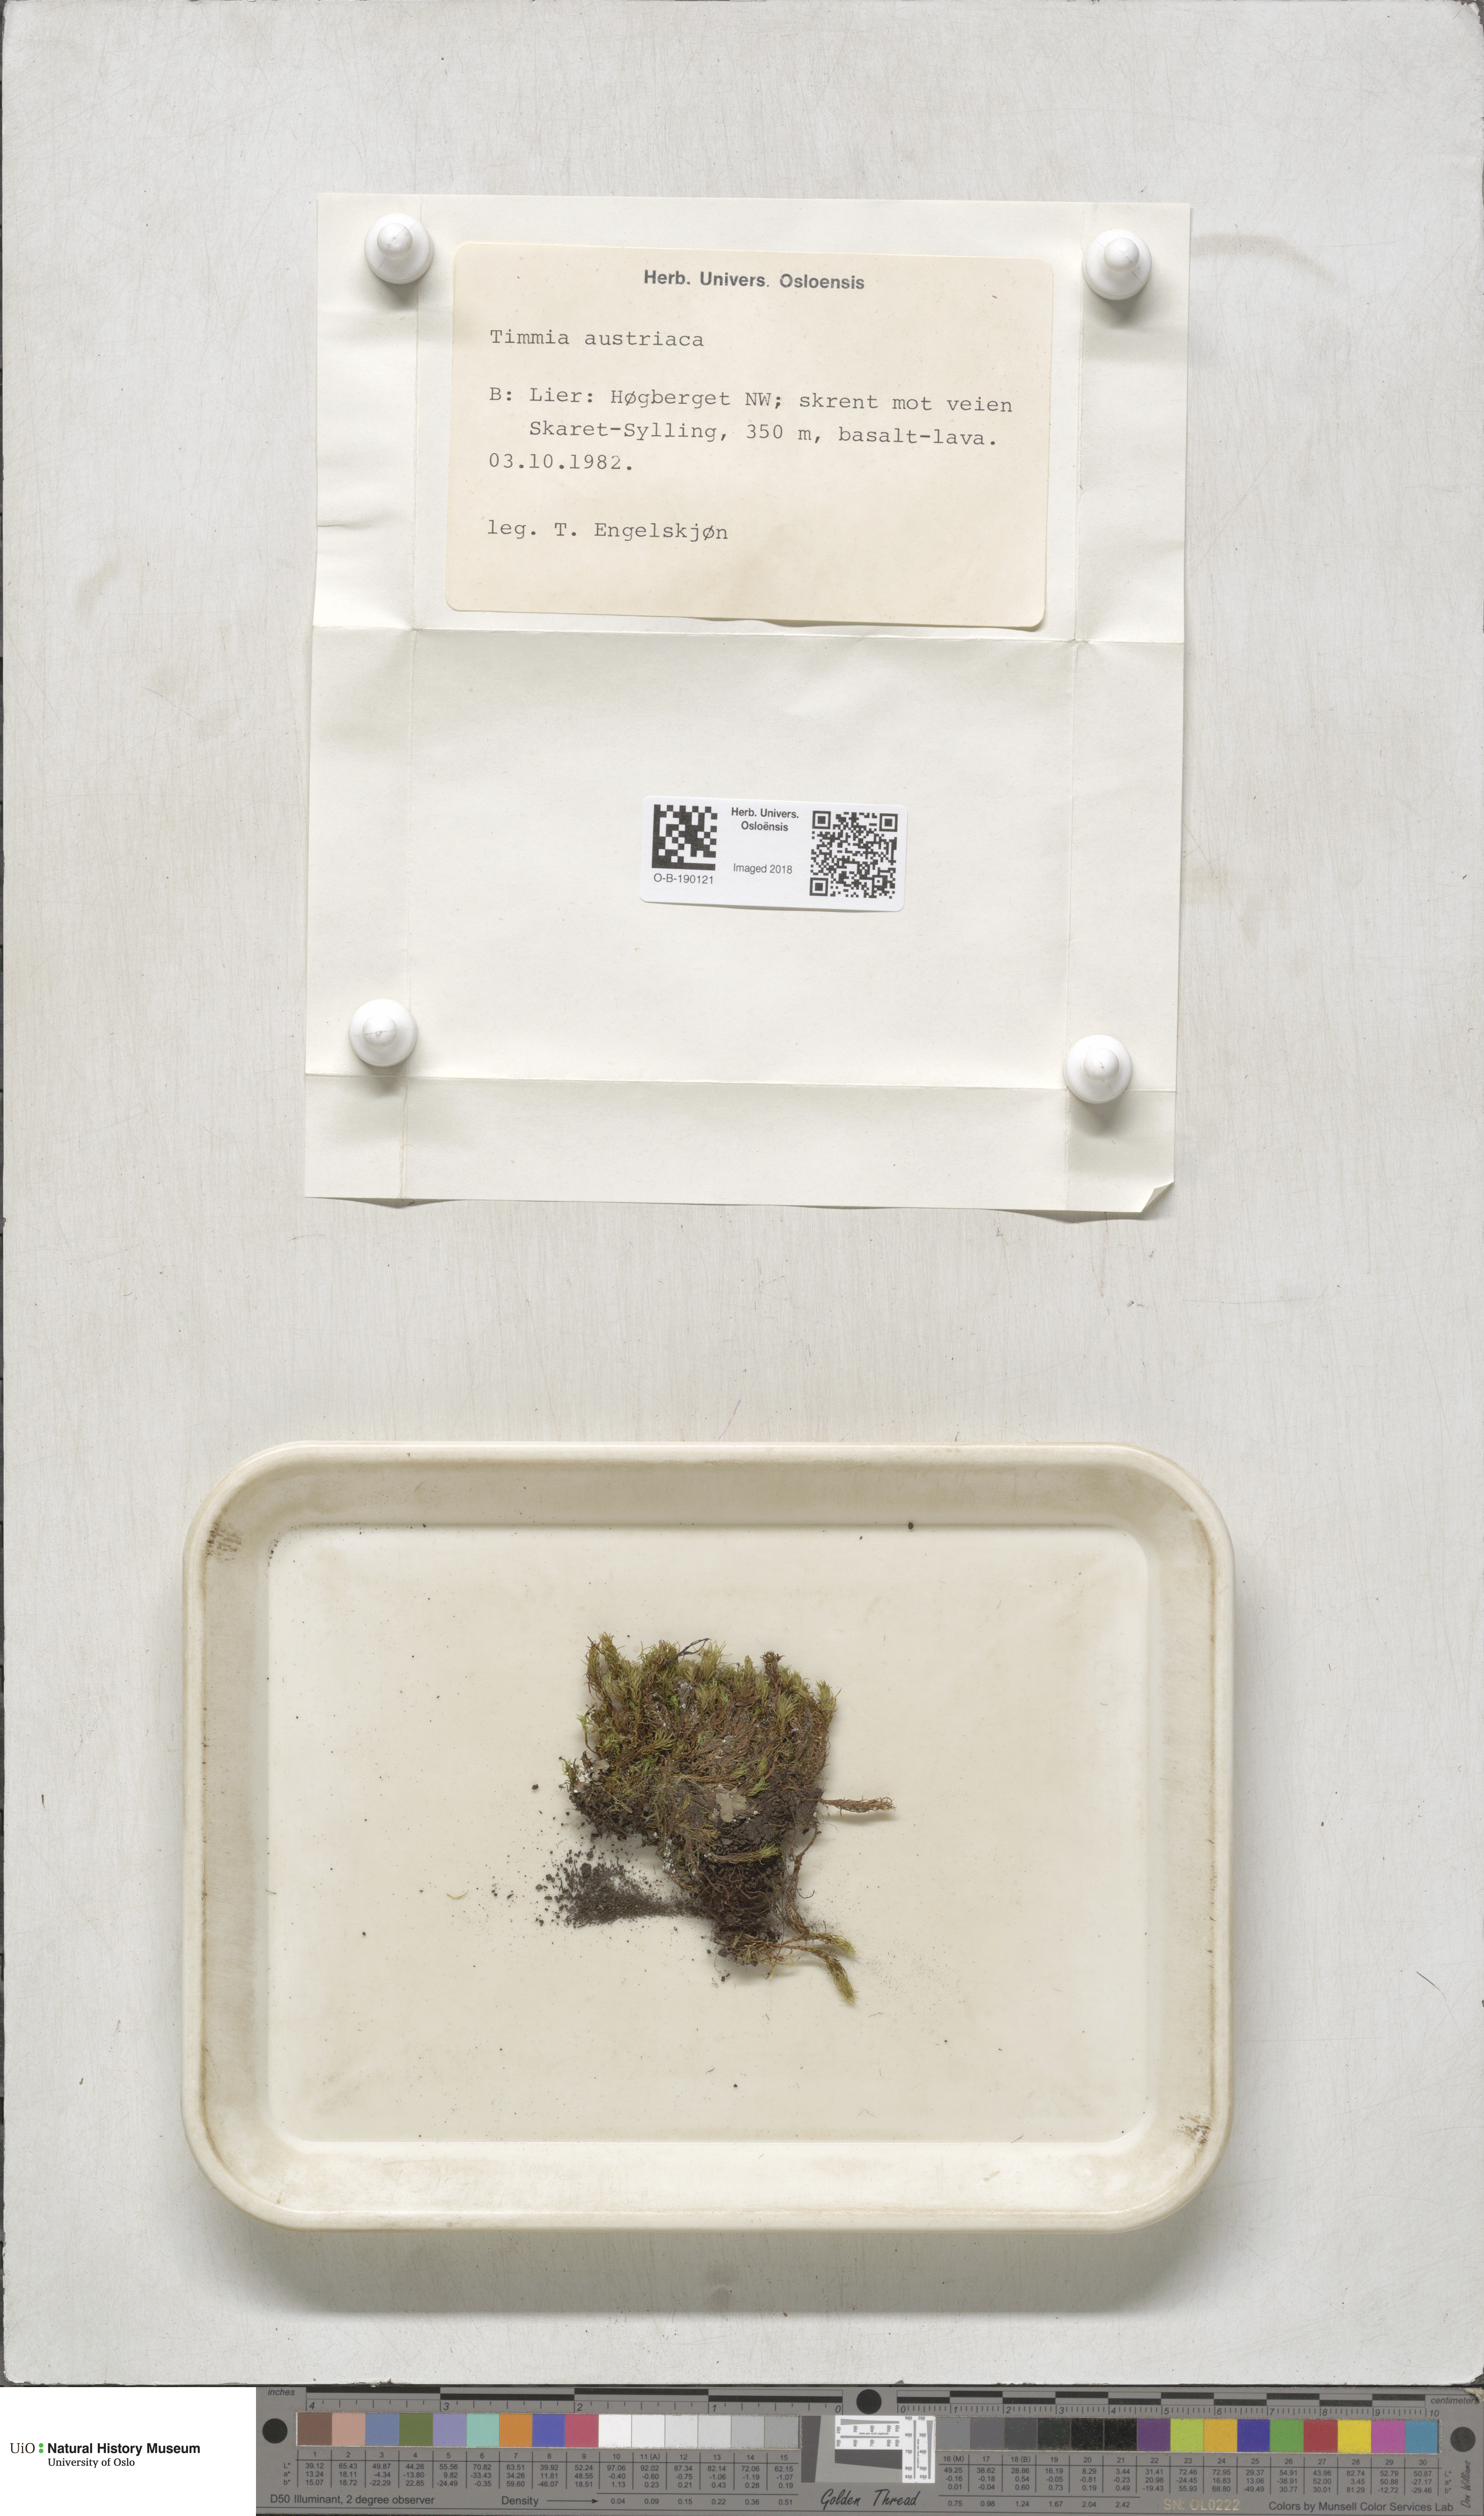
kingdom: Plantae
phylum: Bryophyta
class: Bryopsida
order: Timmiales
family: Timmiaceae
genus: Timmia
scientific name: Timmia austriaca
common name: Austrian timmia
